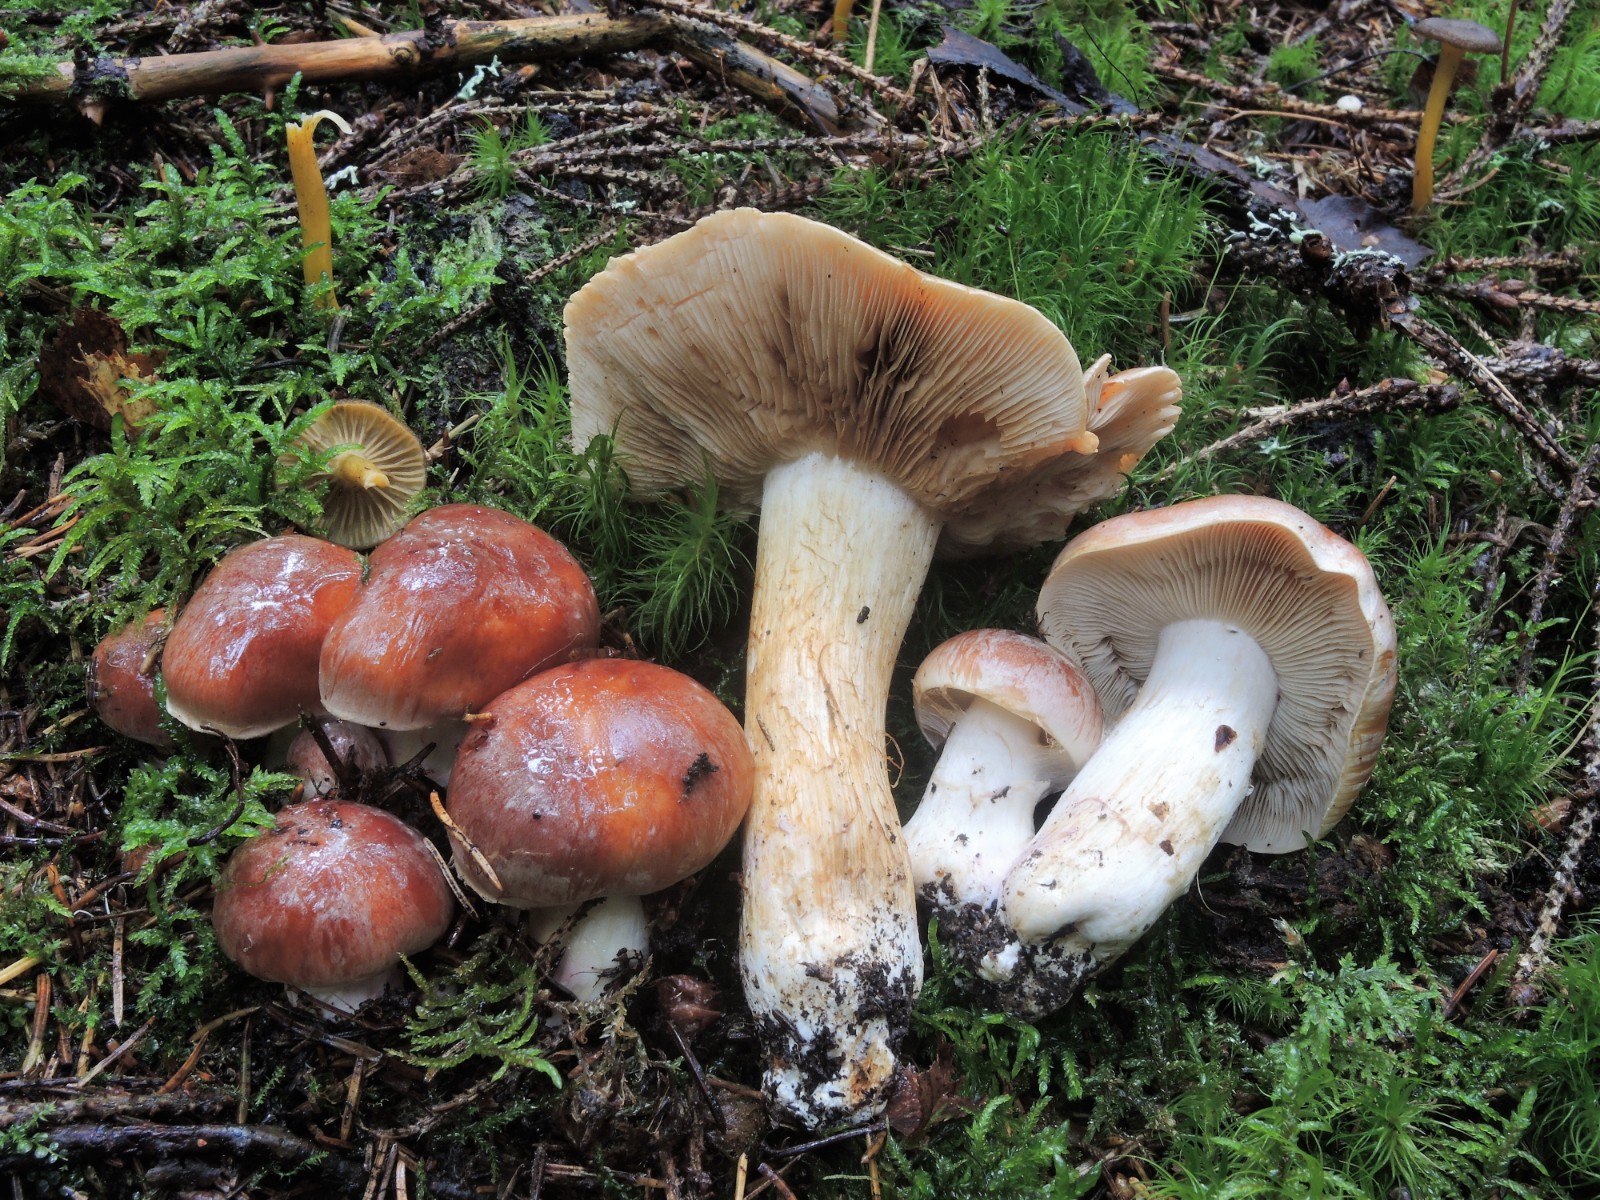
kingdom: Fungi
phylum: Basidiomycota
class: Agaricomycetes
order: Agaricales
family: Cortinariaceae
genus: Thaxterogaster
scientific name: Thaxterogaster variegatus
